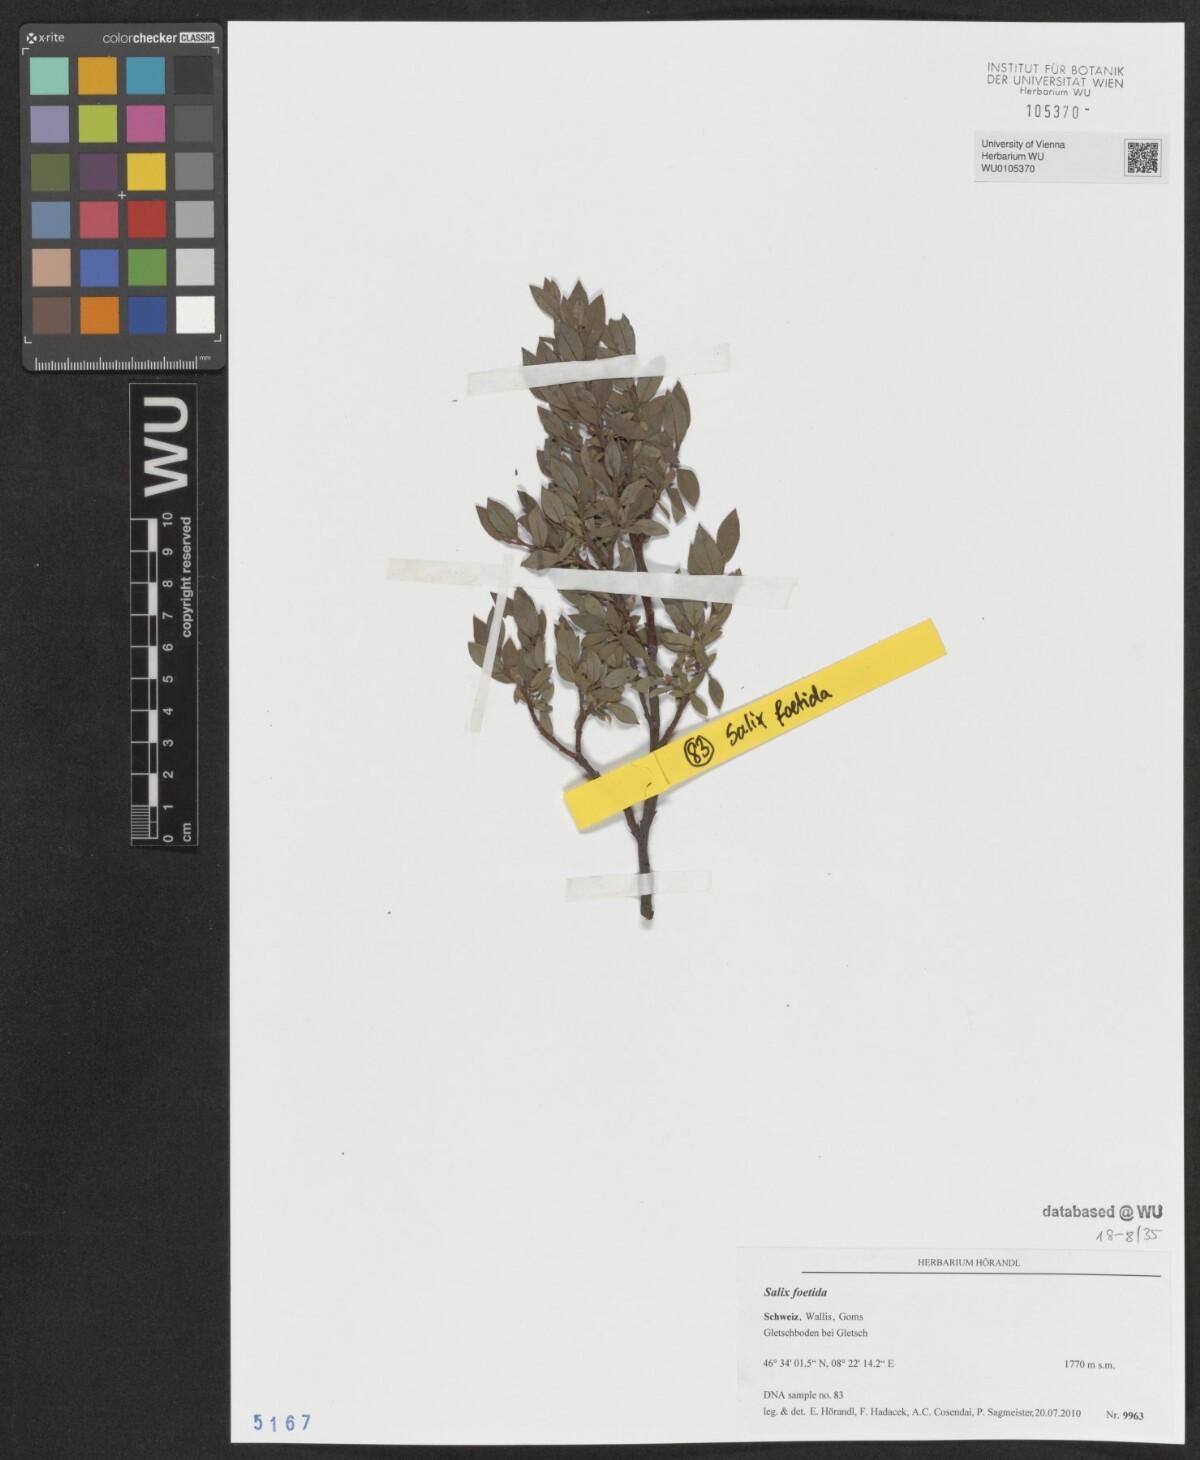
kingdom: Plantae
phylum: Tracheophyta
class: Magnoliopsida
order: Malpighiales
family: Salicaceae
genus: Salix
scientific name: Salix foetida
